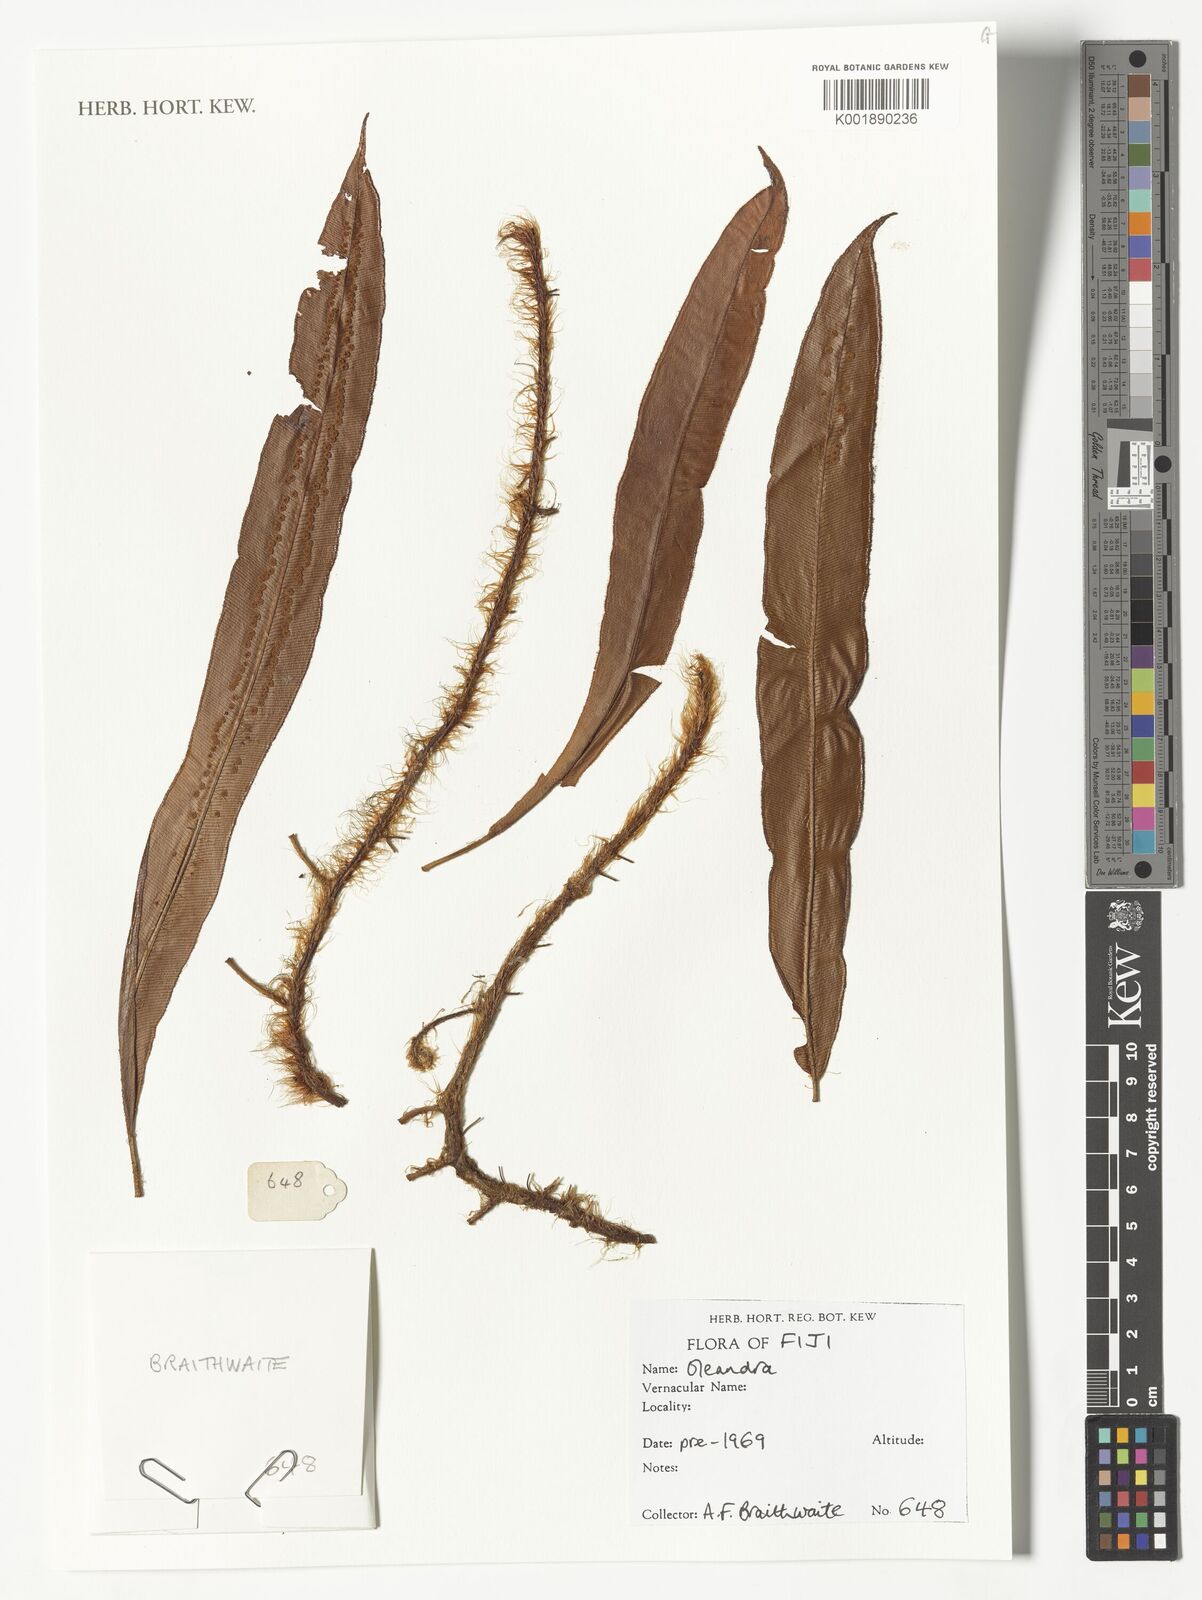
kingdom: Plantae
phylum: Tracheophyta
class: Polypodiopsida
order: Polypodiales
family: Oleandraceae
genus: Oleandra
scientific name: Oleandra
